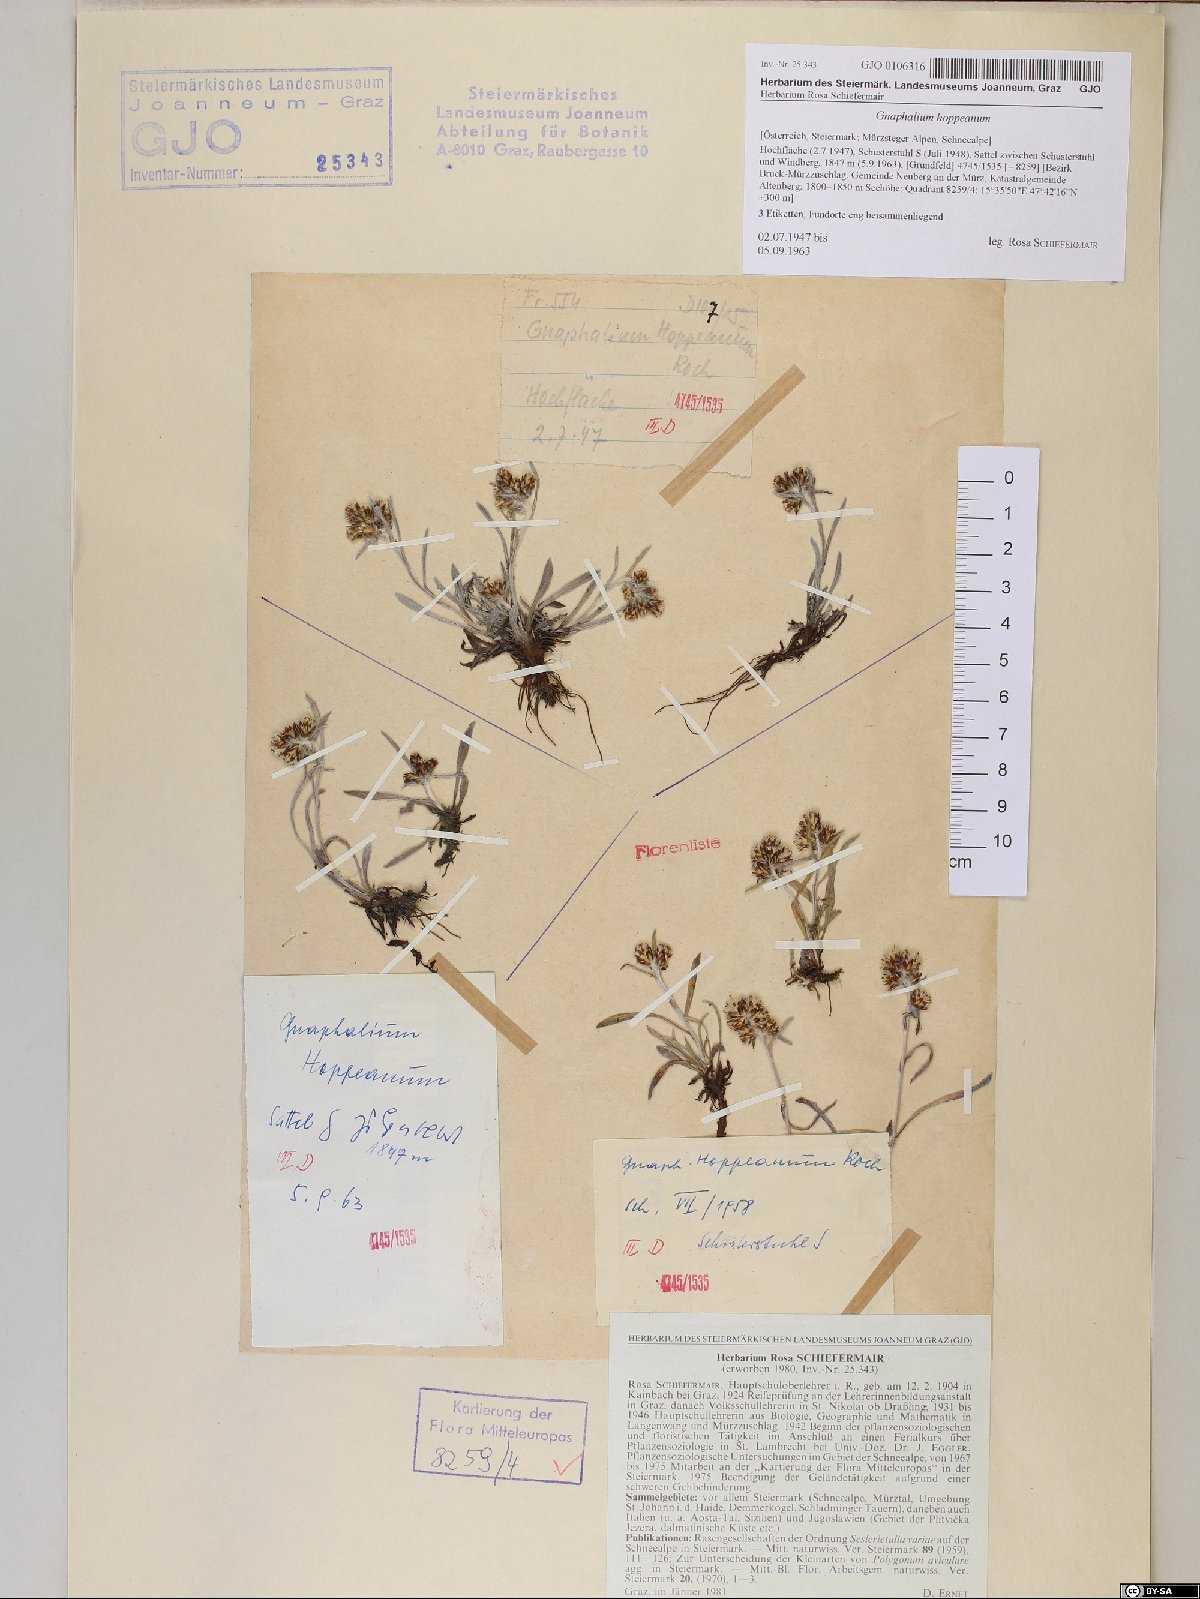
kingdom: Plantae
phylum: Tracheophyta
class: Magnoliopsida
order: Asterales
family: Asteraceae
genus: Omalotheca
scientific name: Omalotheca hoppeana
